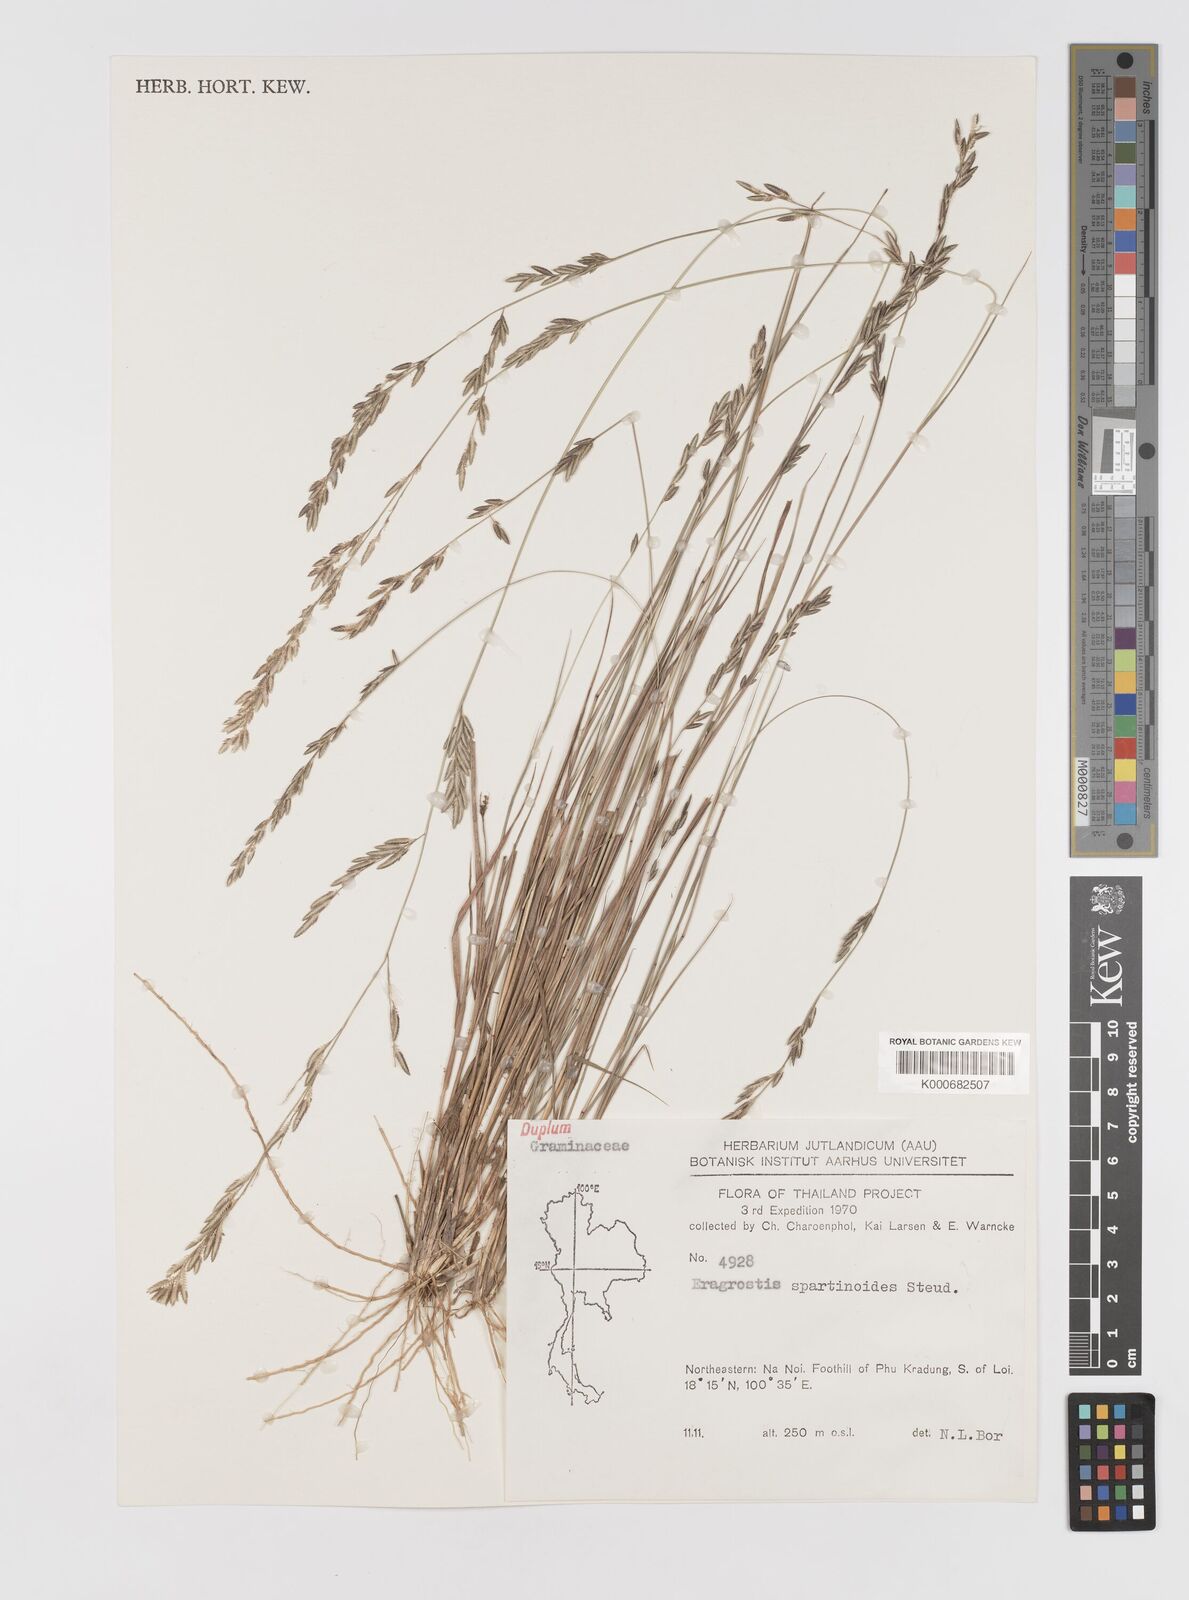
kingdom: Plantae
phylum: Tracheophyta
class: Liliopsida
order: Poales
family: Poaceae
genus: Eragrostis
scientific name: Eragrostis brownii
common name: Lovegrass
